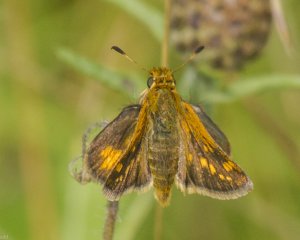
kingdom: Animalia
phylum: Arthropoda
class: Insecta
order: Lepidoptera
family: Hesperiidae
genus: Polites
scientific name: Polites coras
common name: Peck's Skipper
